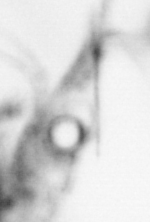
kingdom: Animalia
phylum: Arthropoda
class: Copepoda
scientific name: Copepoda
